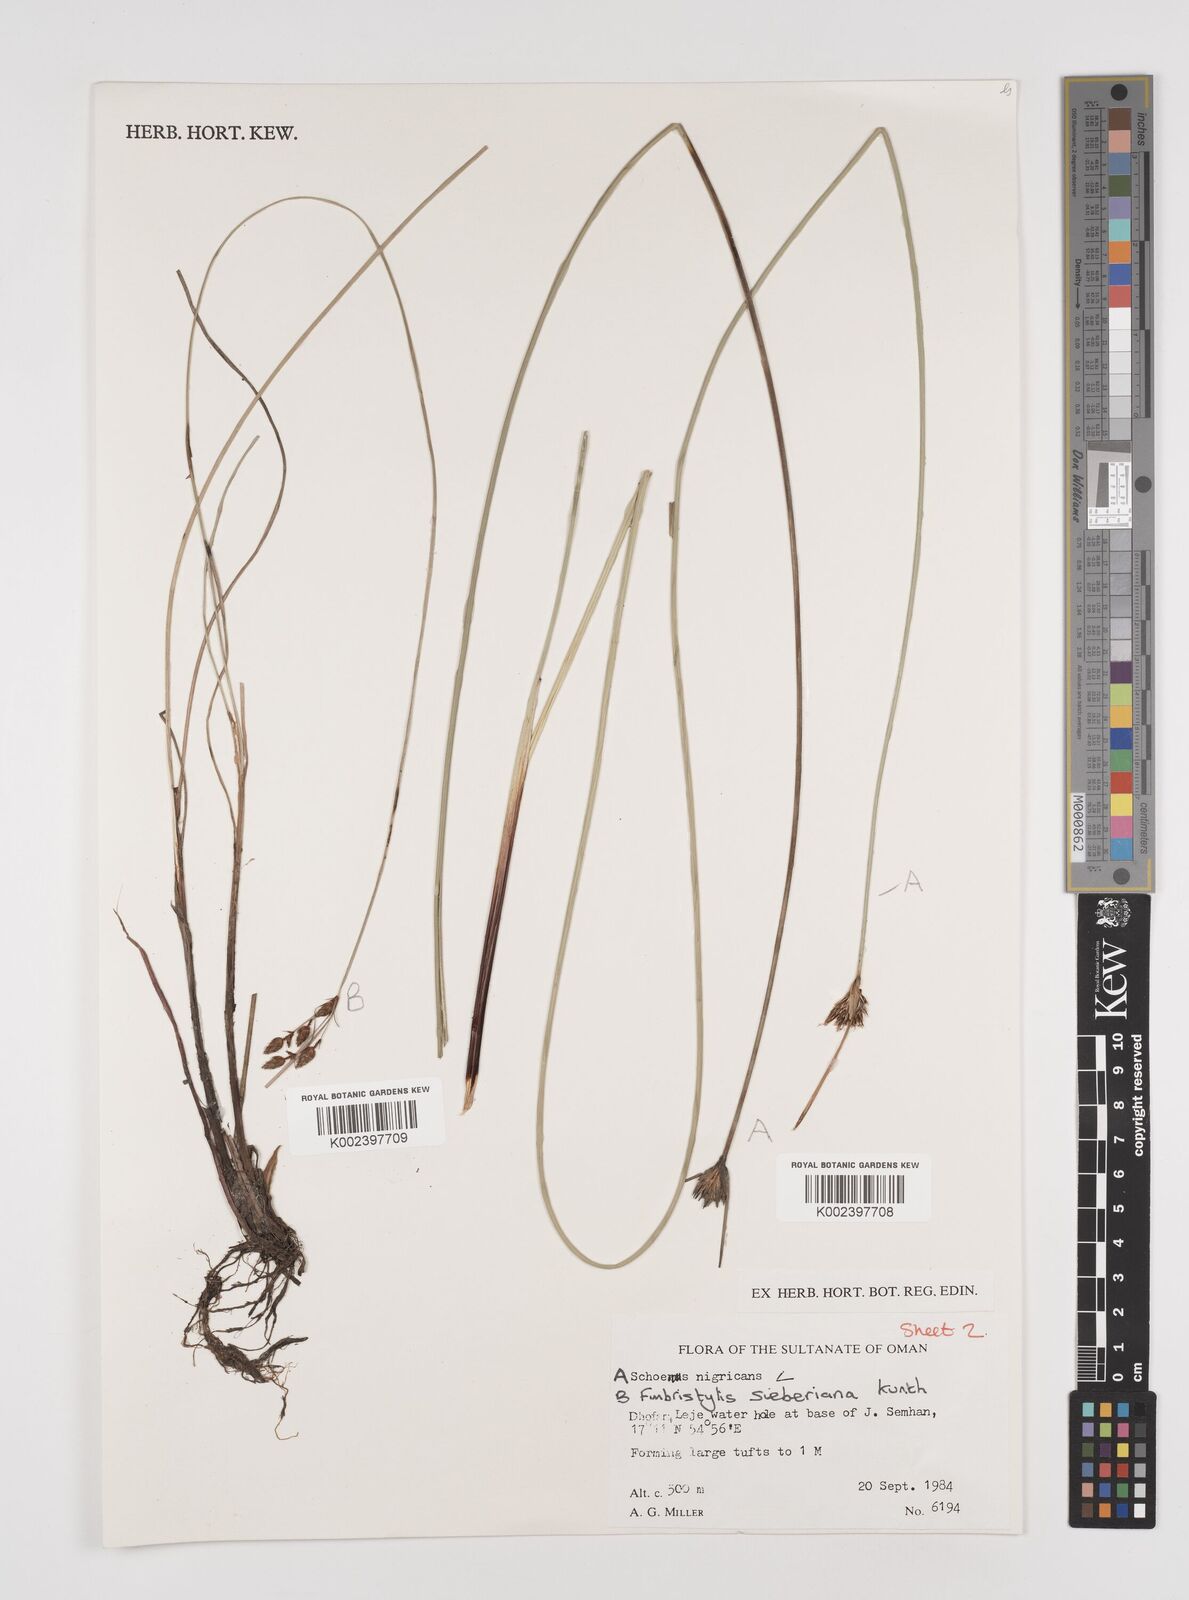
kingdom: Plantae
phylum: Tracheophyta
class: Liliopsida
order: Poales
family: Cyperaceae
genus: Schoenus
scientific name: Schoenus nigricans
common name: Black bog-rush
